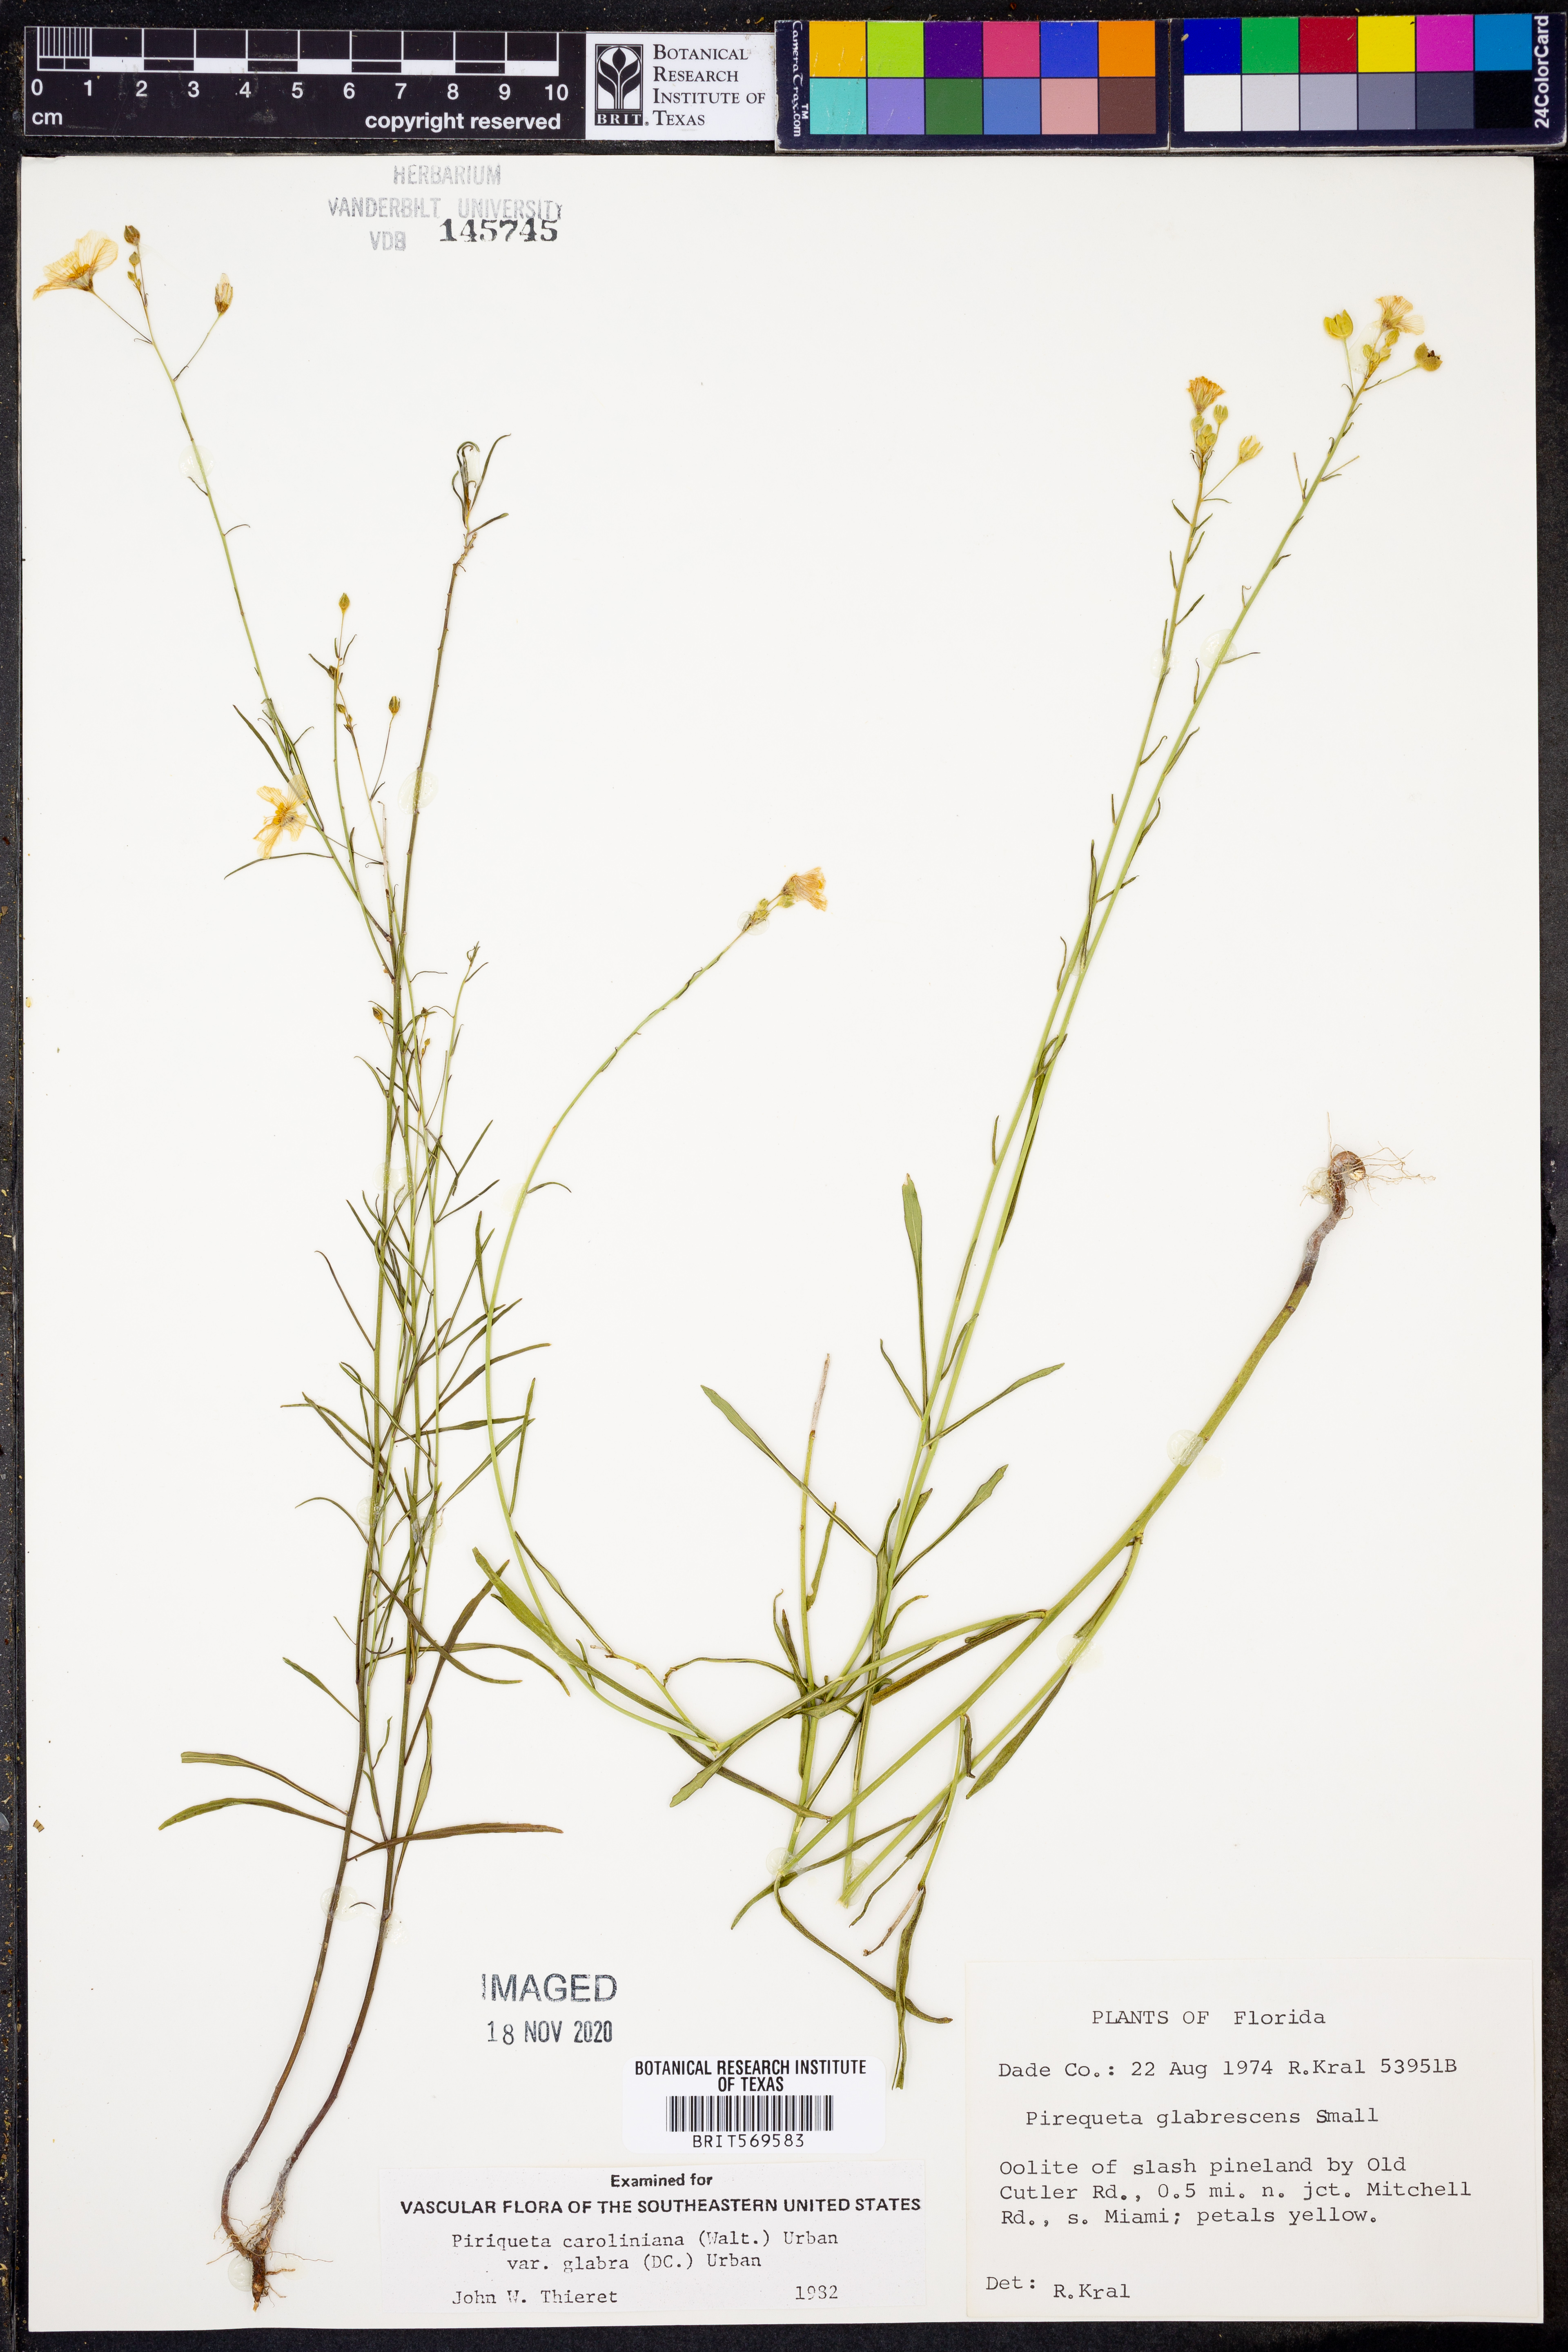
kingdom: Plantae
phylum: Tracheophyta
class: Magnoliopsida
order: Malpighiales
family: Turneraceae
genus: Piriqueta
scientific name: Piriqueta cistoides
